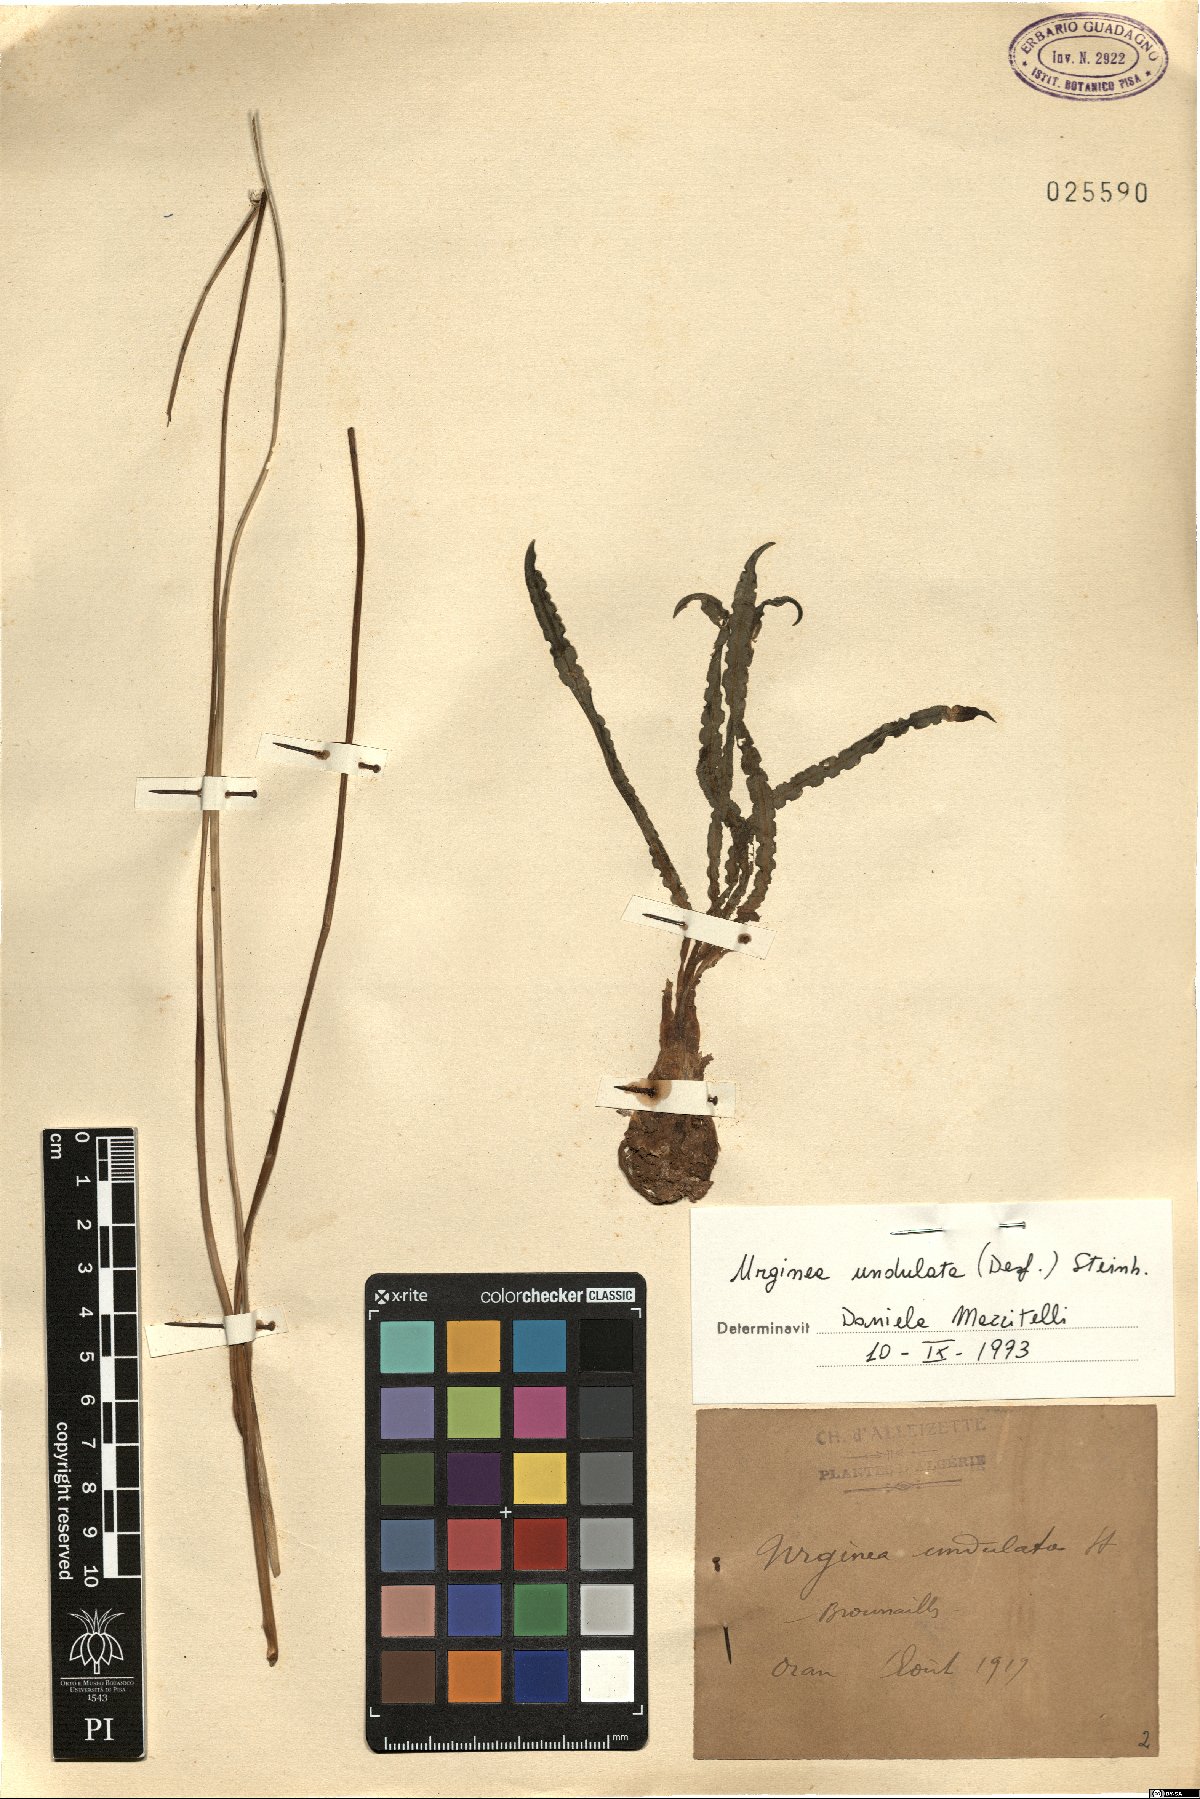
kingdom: Plantae
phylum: Tracheophyta
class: Liliopsida
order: Asparagales
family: Asparagaceae
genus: Drimia
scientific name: Drimia purpurascens
